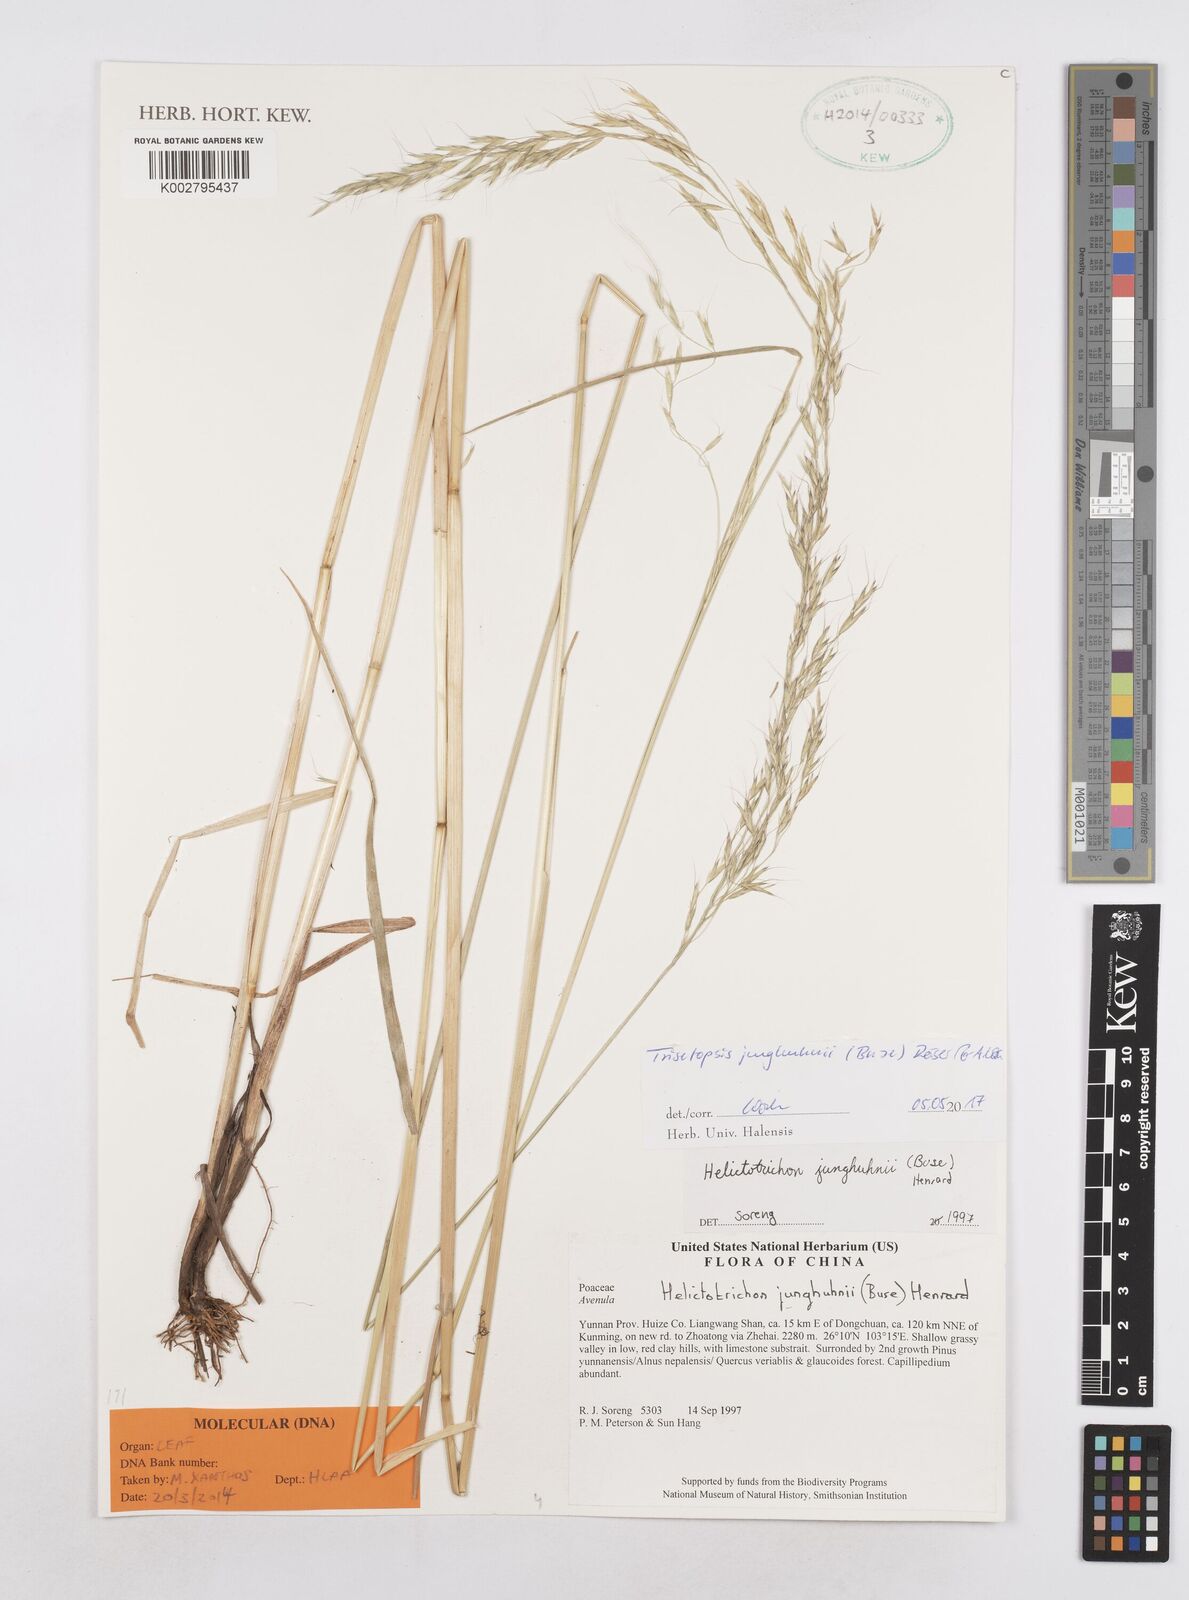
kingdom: Plantae
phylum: Tracheophyta
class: Liliopsida
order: Poales
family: Poaceae
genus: Trisetopsis
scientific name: Trisetopsis junghuhnii
